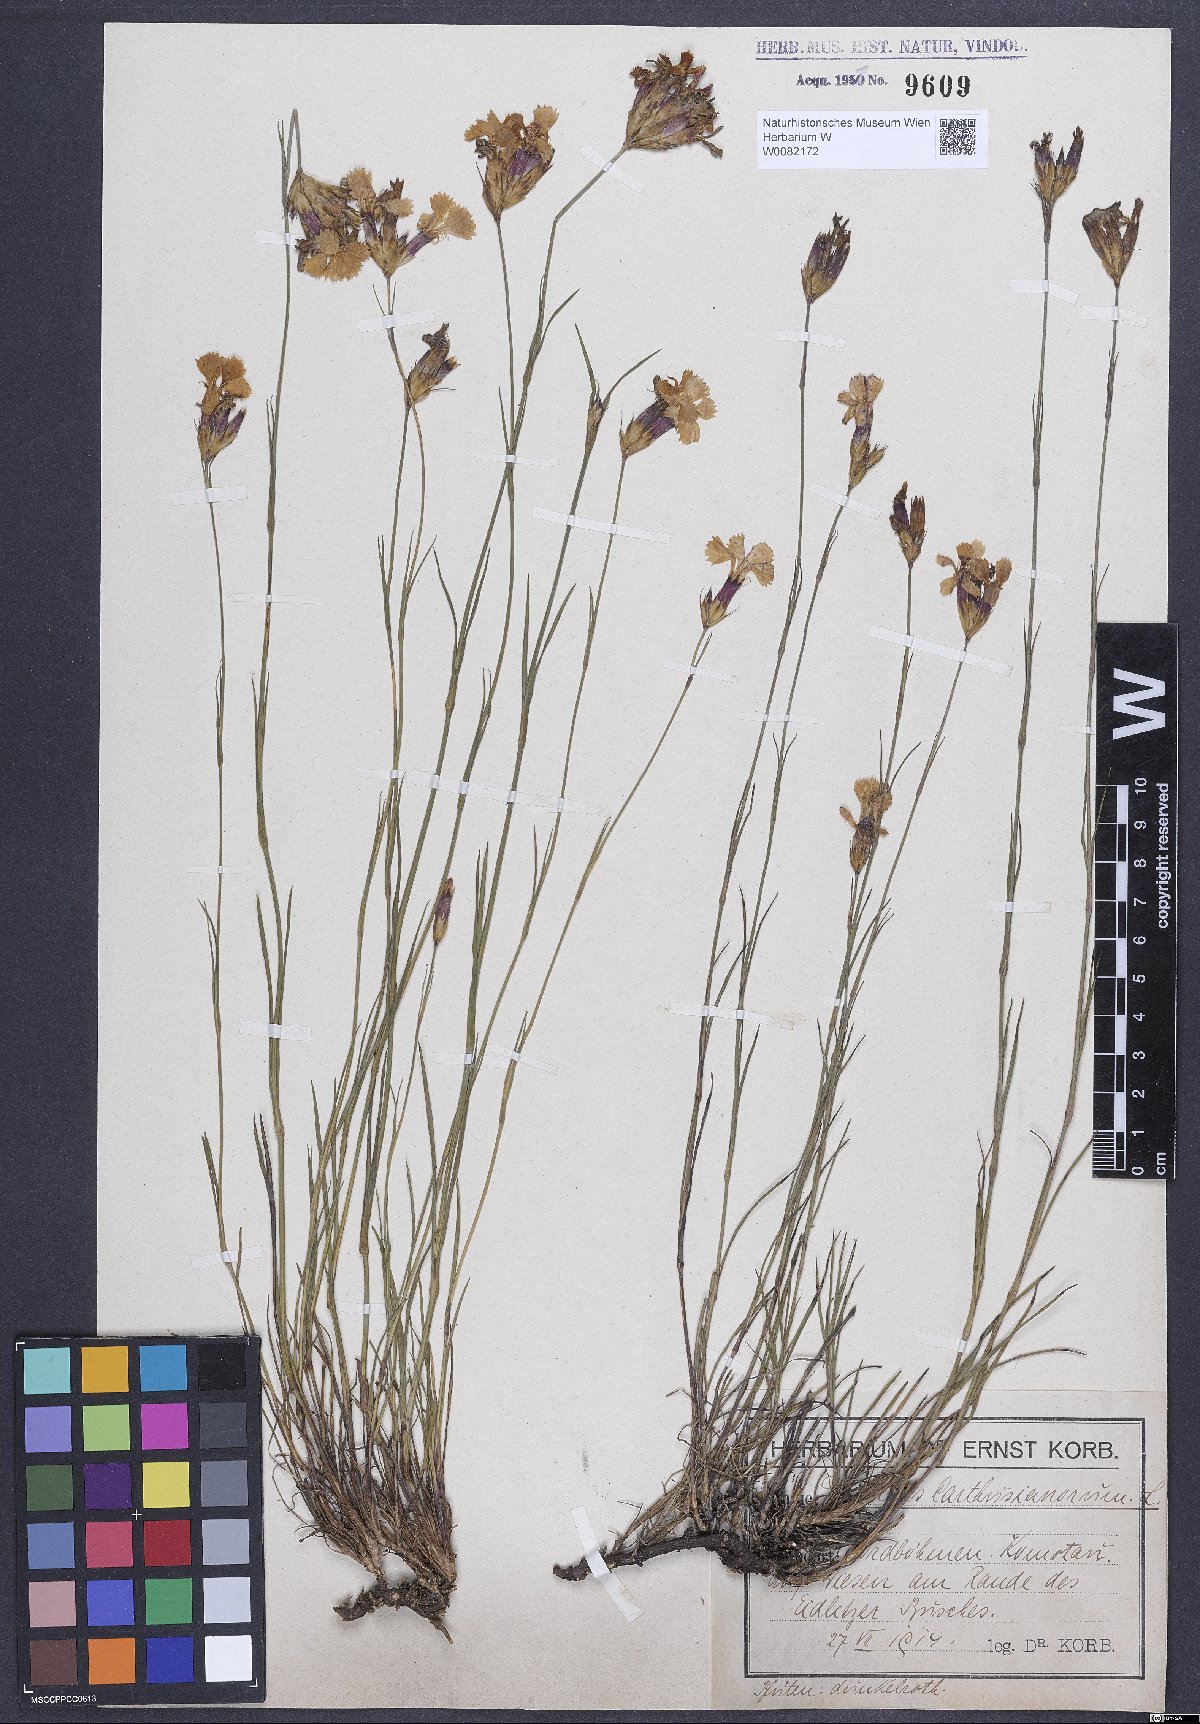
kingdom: Plantae
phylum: Tracheophyta
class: Magnoliopsida
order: Caryophyllales
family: Caryophyllaceae
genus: Dianthus
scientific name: Dianthus carthusianorum
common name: Carthusian pink
